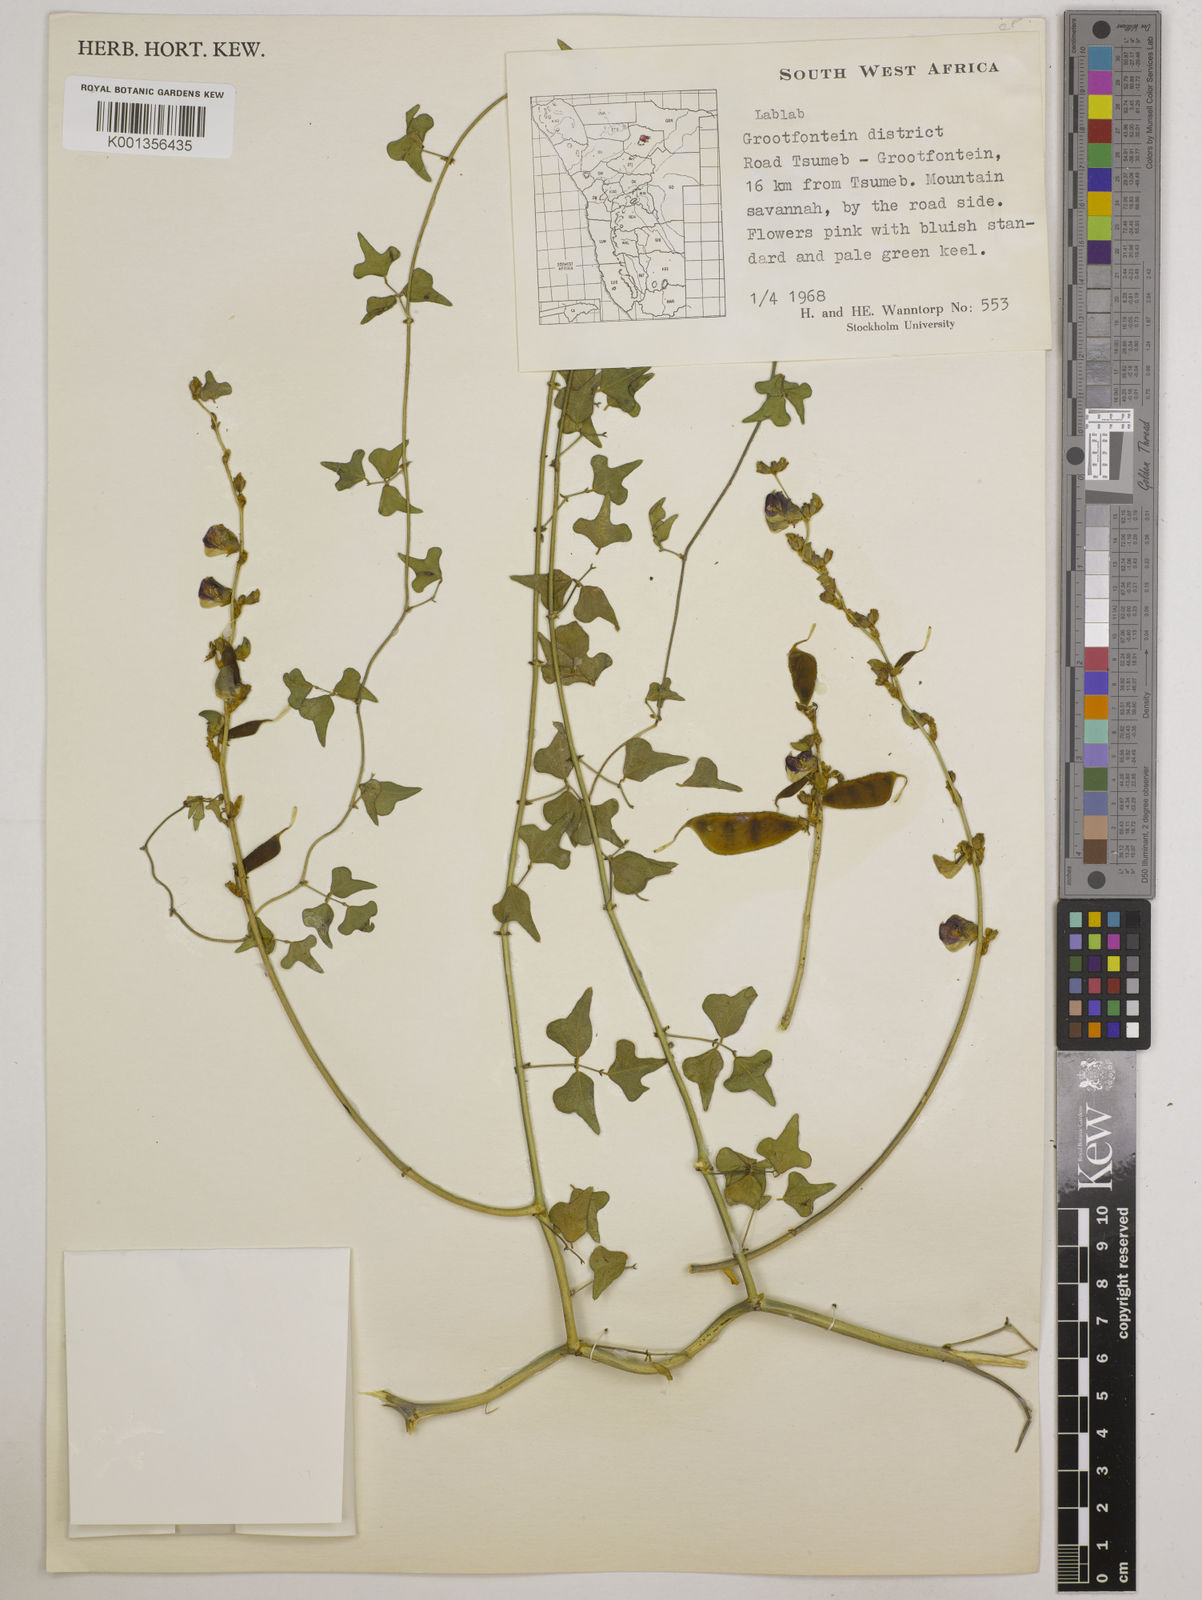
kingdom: Plantae
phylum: Tracheophyta
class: Magnoliopsida
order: Fabales
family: Fabaceae
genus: Lablab
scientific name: Lablab purpureus
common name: Lablab-bean
